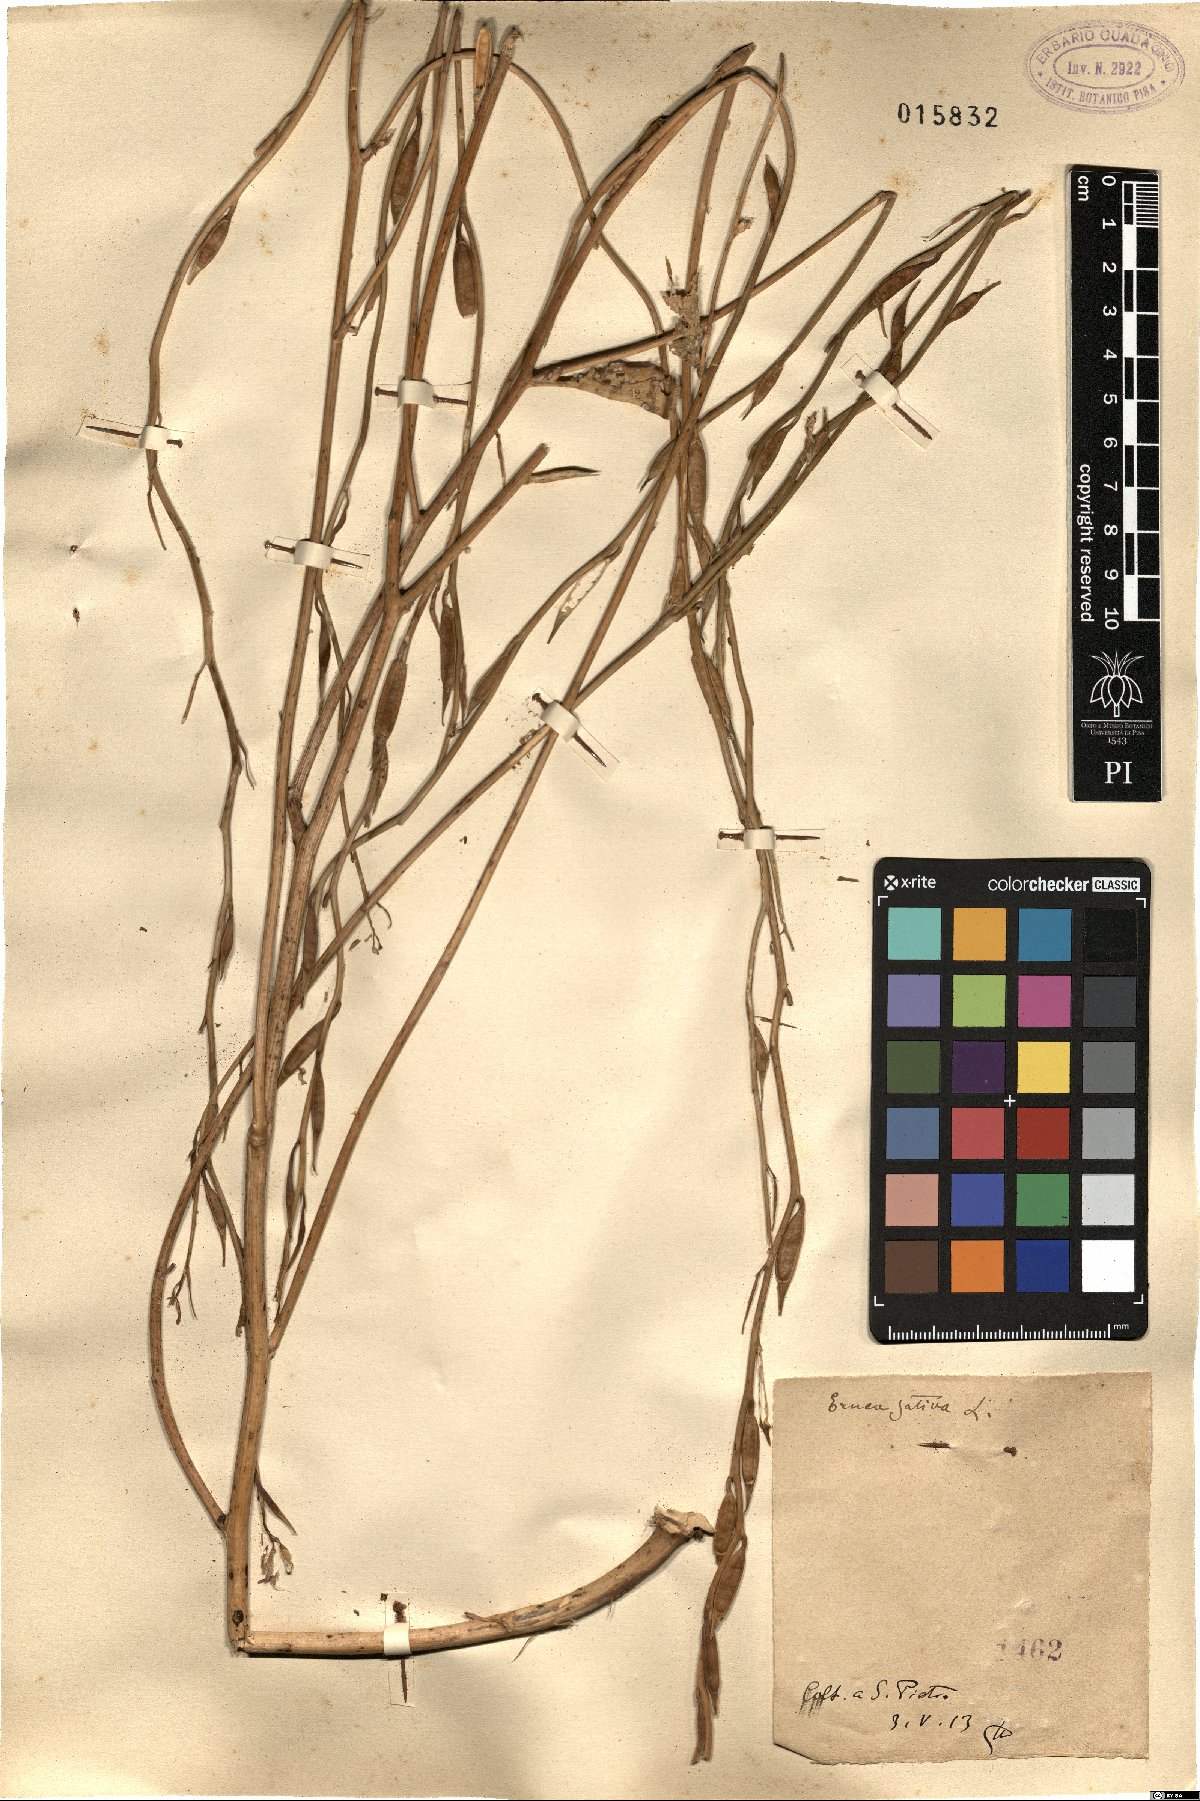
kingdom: Plantae
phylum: Tracheophyta
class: Magnoliopsida
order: Brassicales
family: Brassicaceae
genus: Eruca
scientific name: Eruca vesicaria
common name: Garden rocket
